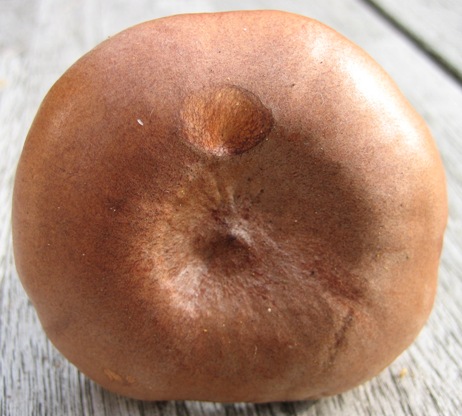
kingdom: Fungi
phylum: Basidiomycota
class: Agaricomycetes
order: Russulales
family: Russulaceae
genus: Lactarius
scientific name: Lactarius rufus
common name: rødbrun mælkehat
